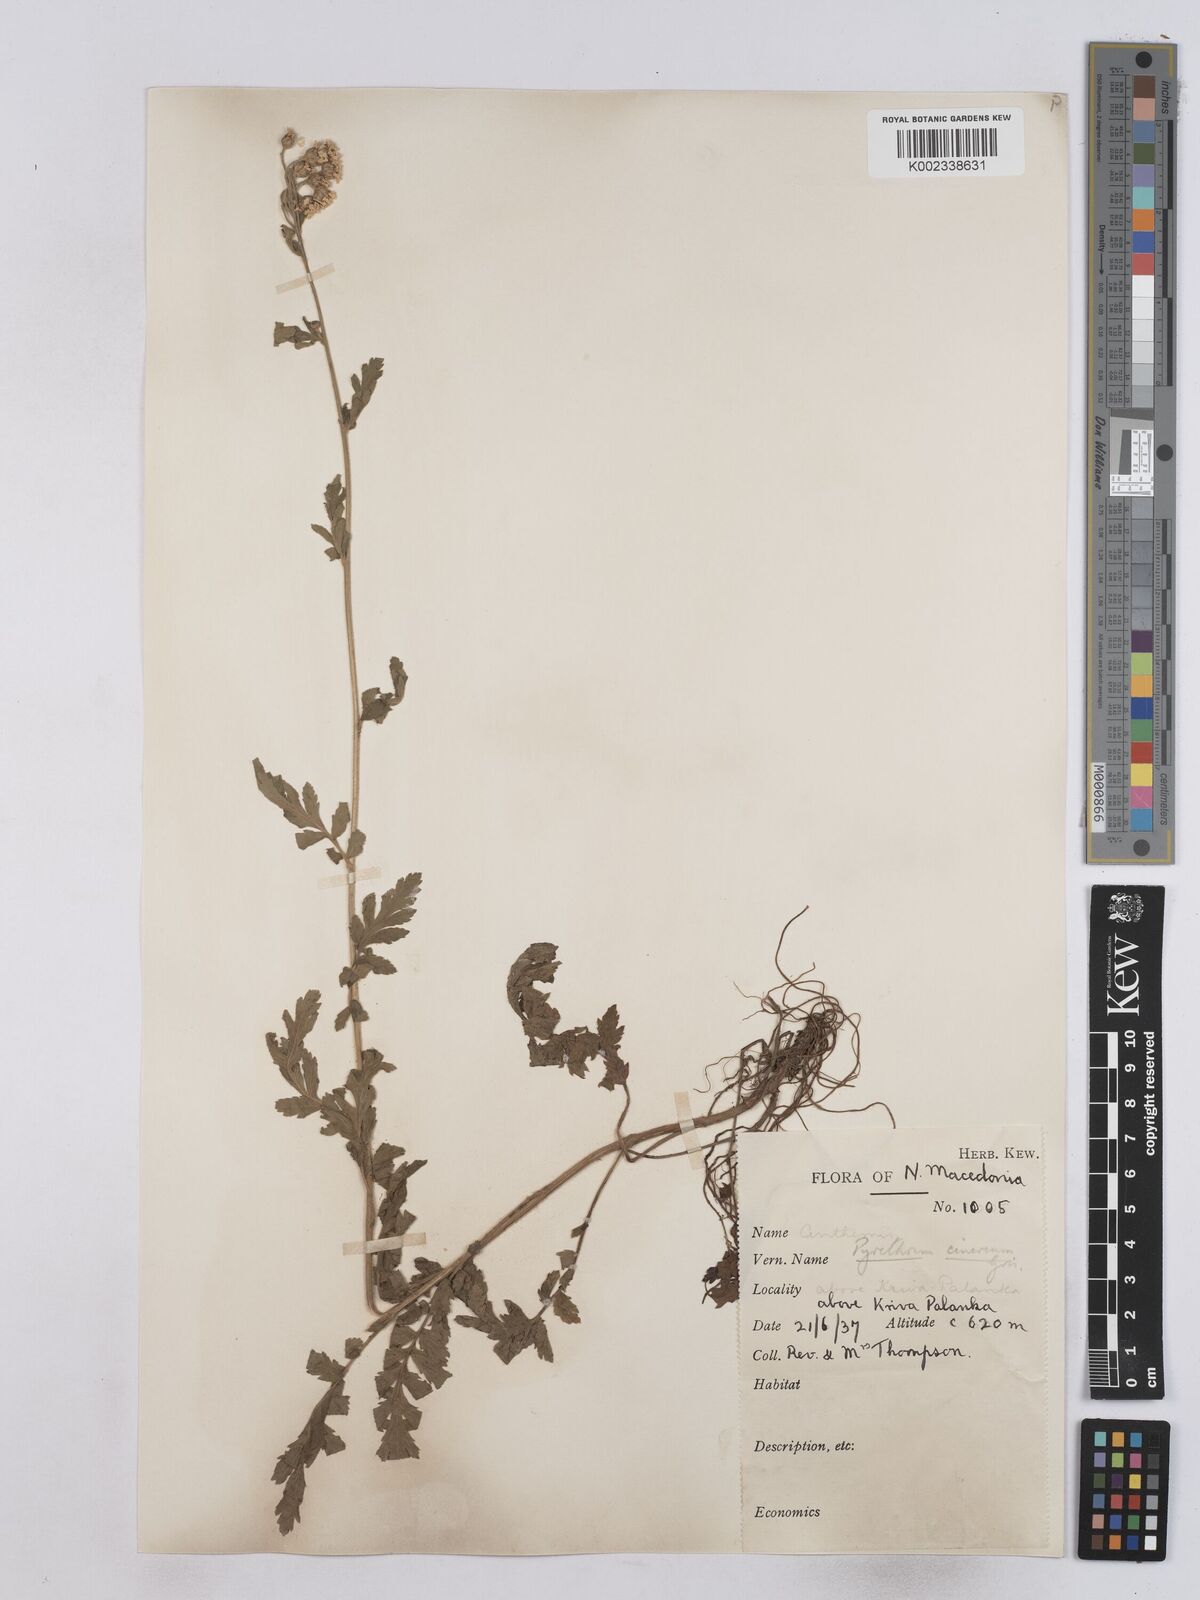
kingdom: Plantae
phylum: Tracheophyta
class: Magnoliopsida
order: Asterales
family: Asteraceae
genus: Tanacetum
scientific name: Tanacetum corymbosum
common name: Scentless feverfew
